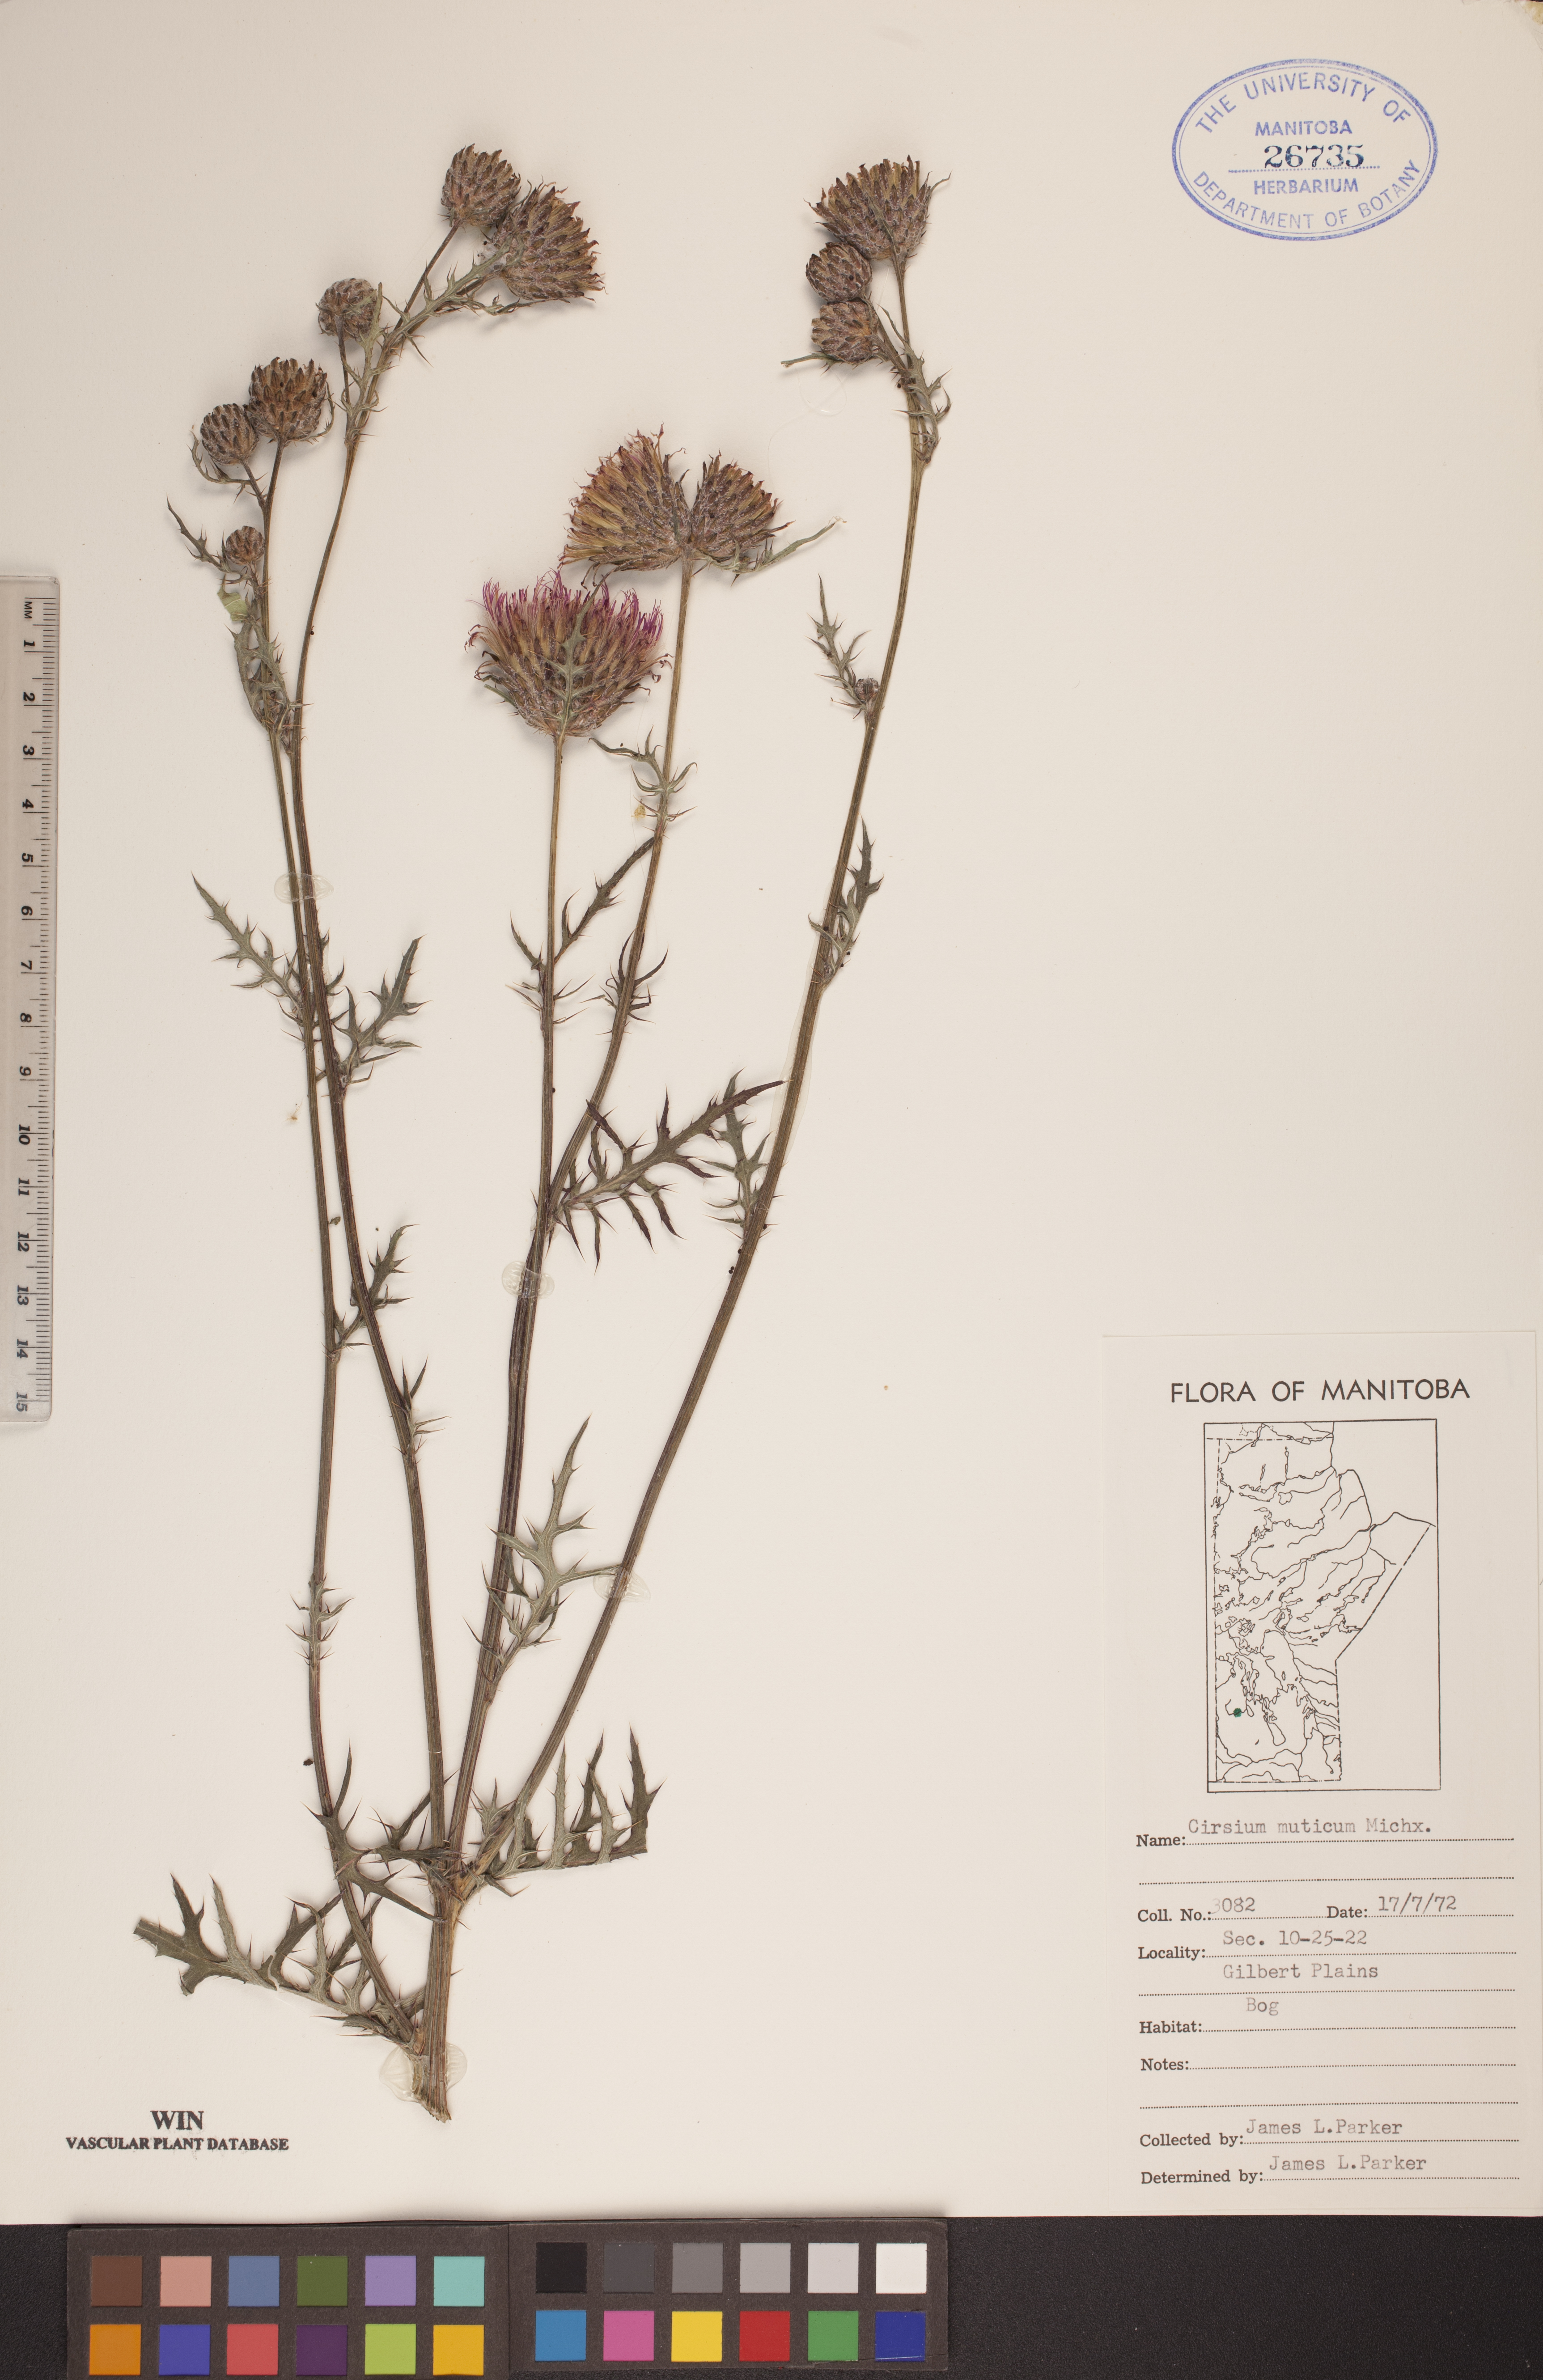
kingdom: Plantae
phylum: Tracheophyta
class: Magnoliopsida
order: Asterales
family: Asteraceae
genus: Cirsium
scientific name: Cirsium muticum
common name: Dunce-nettle
